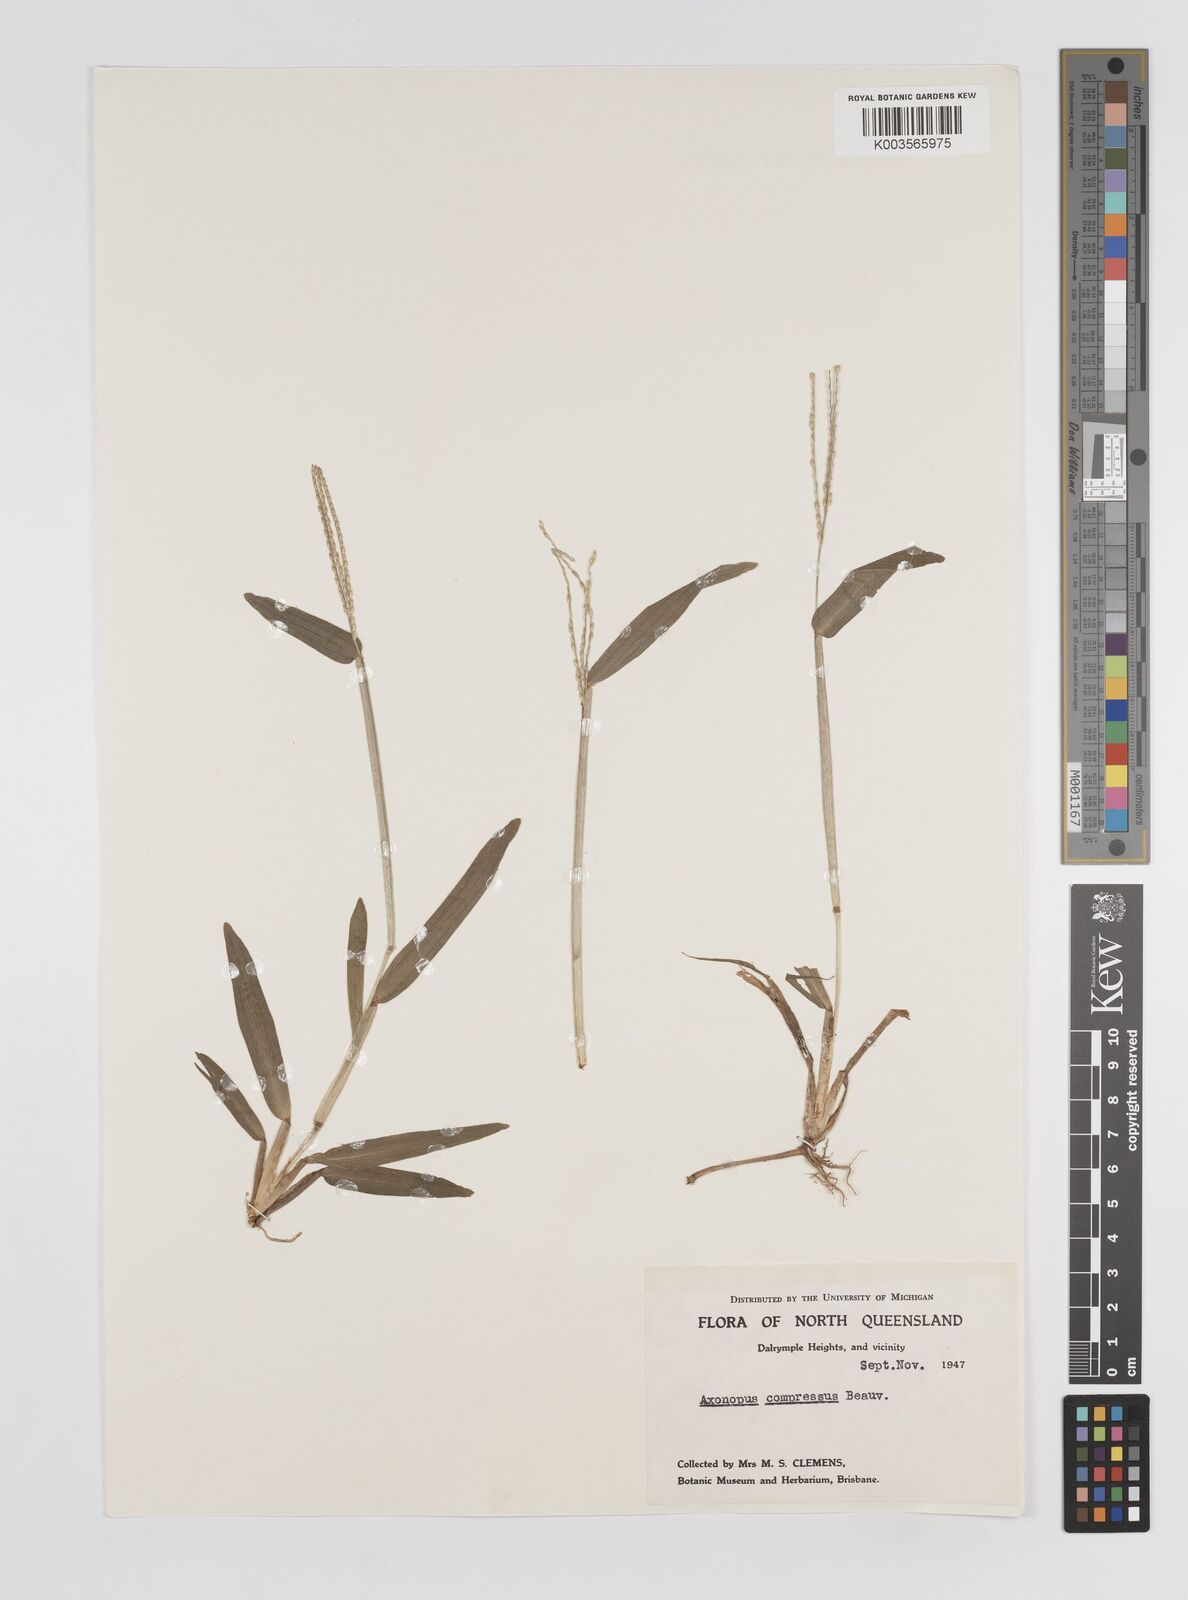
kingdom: Plantae
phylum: Tracheophyta
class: Liliopsida
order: Poales
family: Poaceae
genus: Axonopus
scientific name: Axonopus compressus
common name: American carpet grass
